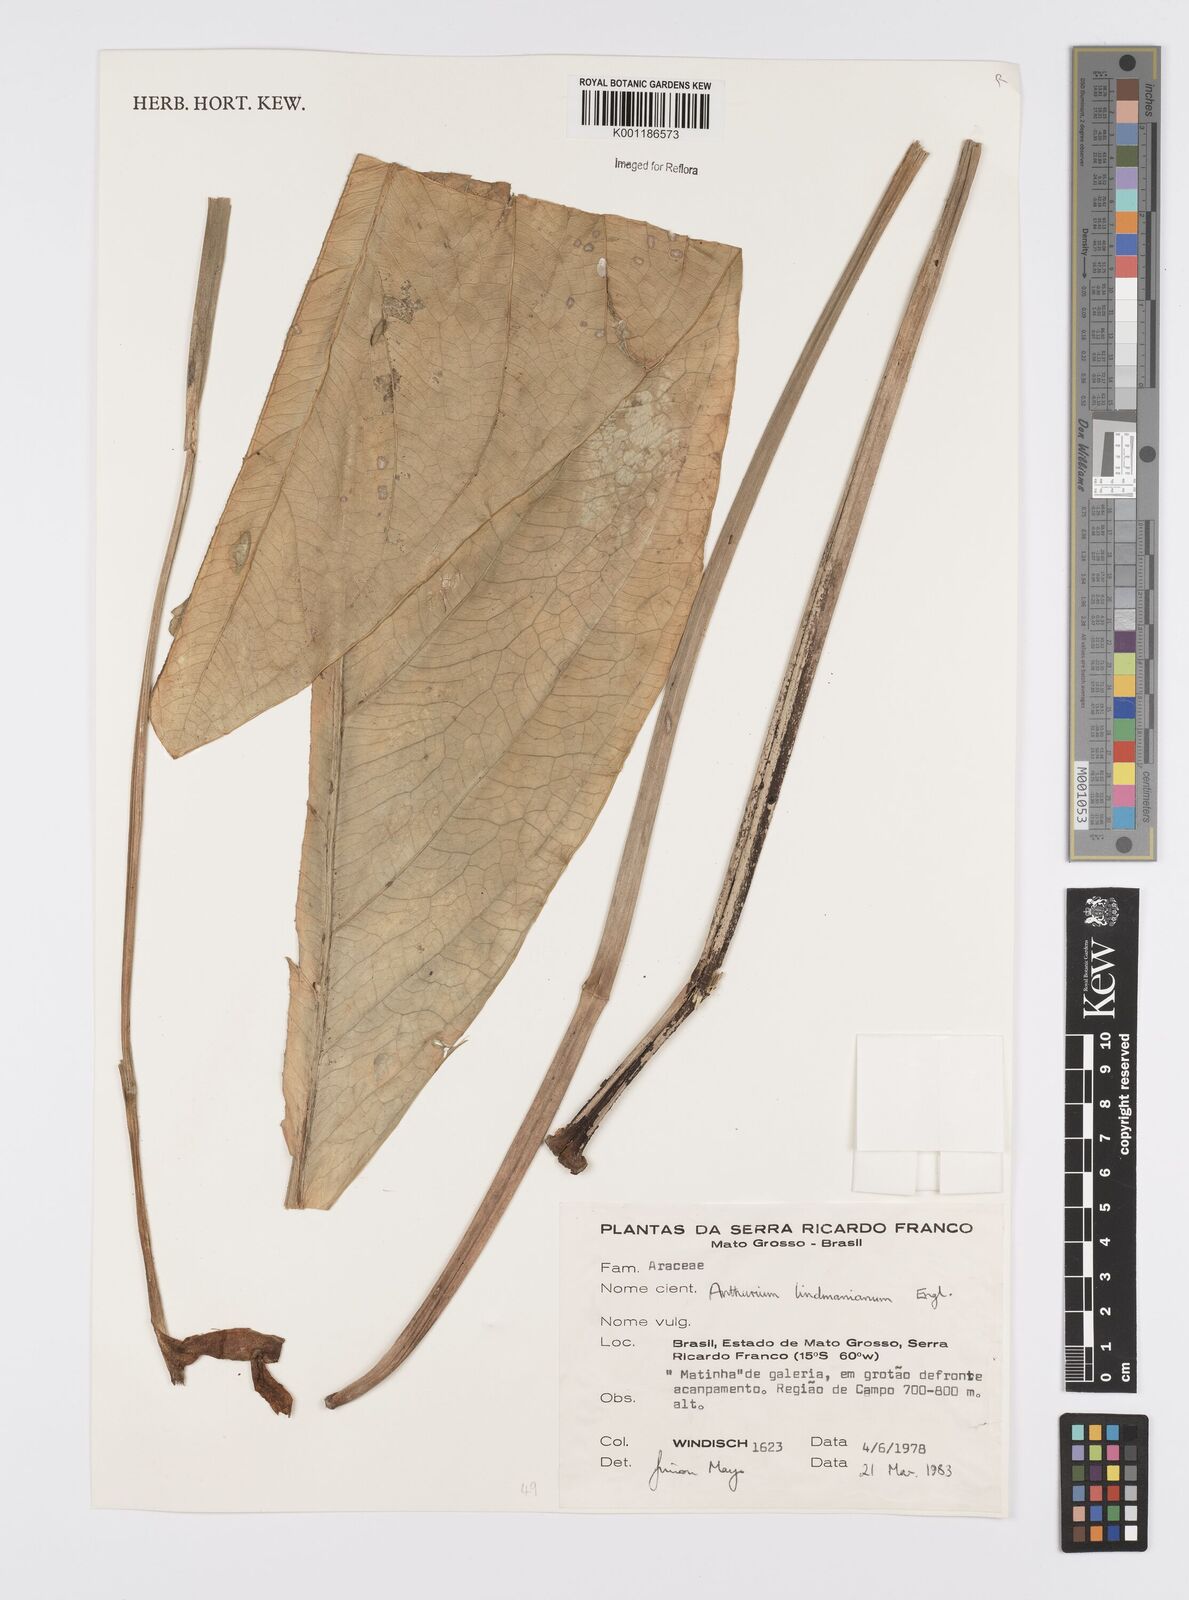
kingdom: Plantae
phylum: Tracheophyta
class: Liliopsida
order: Alismatales
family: Araceae
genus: Anthurium
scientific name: Anthurium lindmanianum
